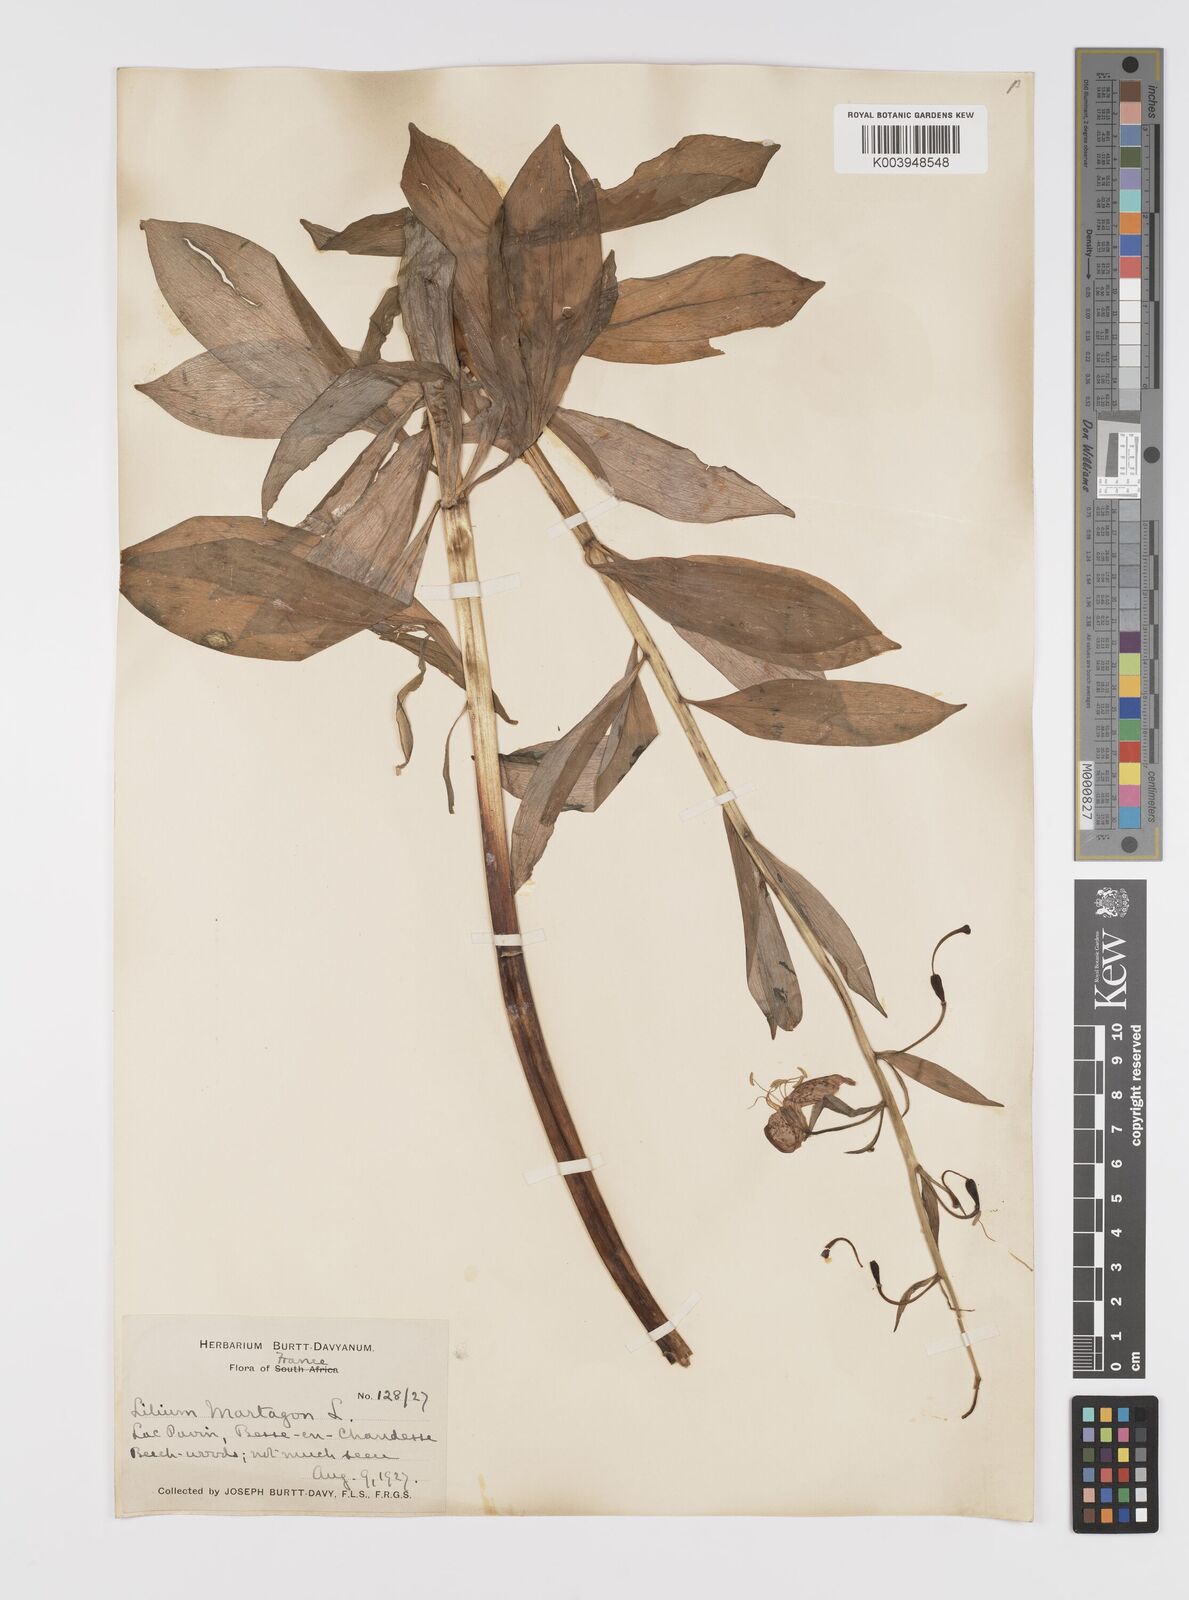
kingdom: Plantae
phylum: Tracheophyta
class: Liliopsida
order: Liliales
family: Liliaceae
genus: Lilium
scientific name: Lilium martagon
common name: Martagon lily
